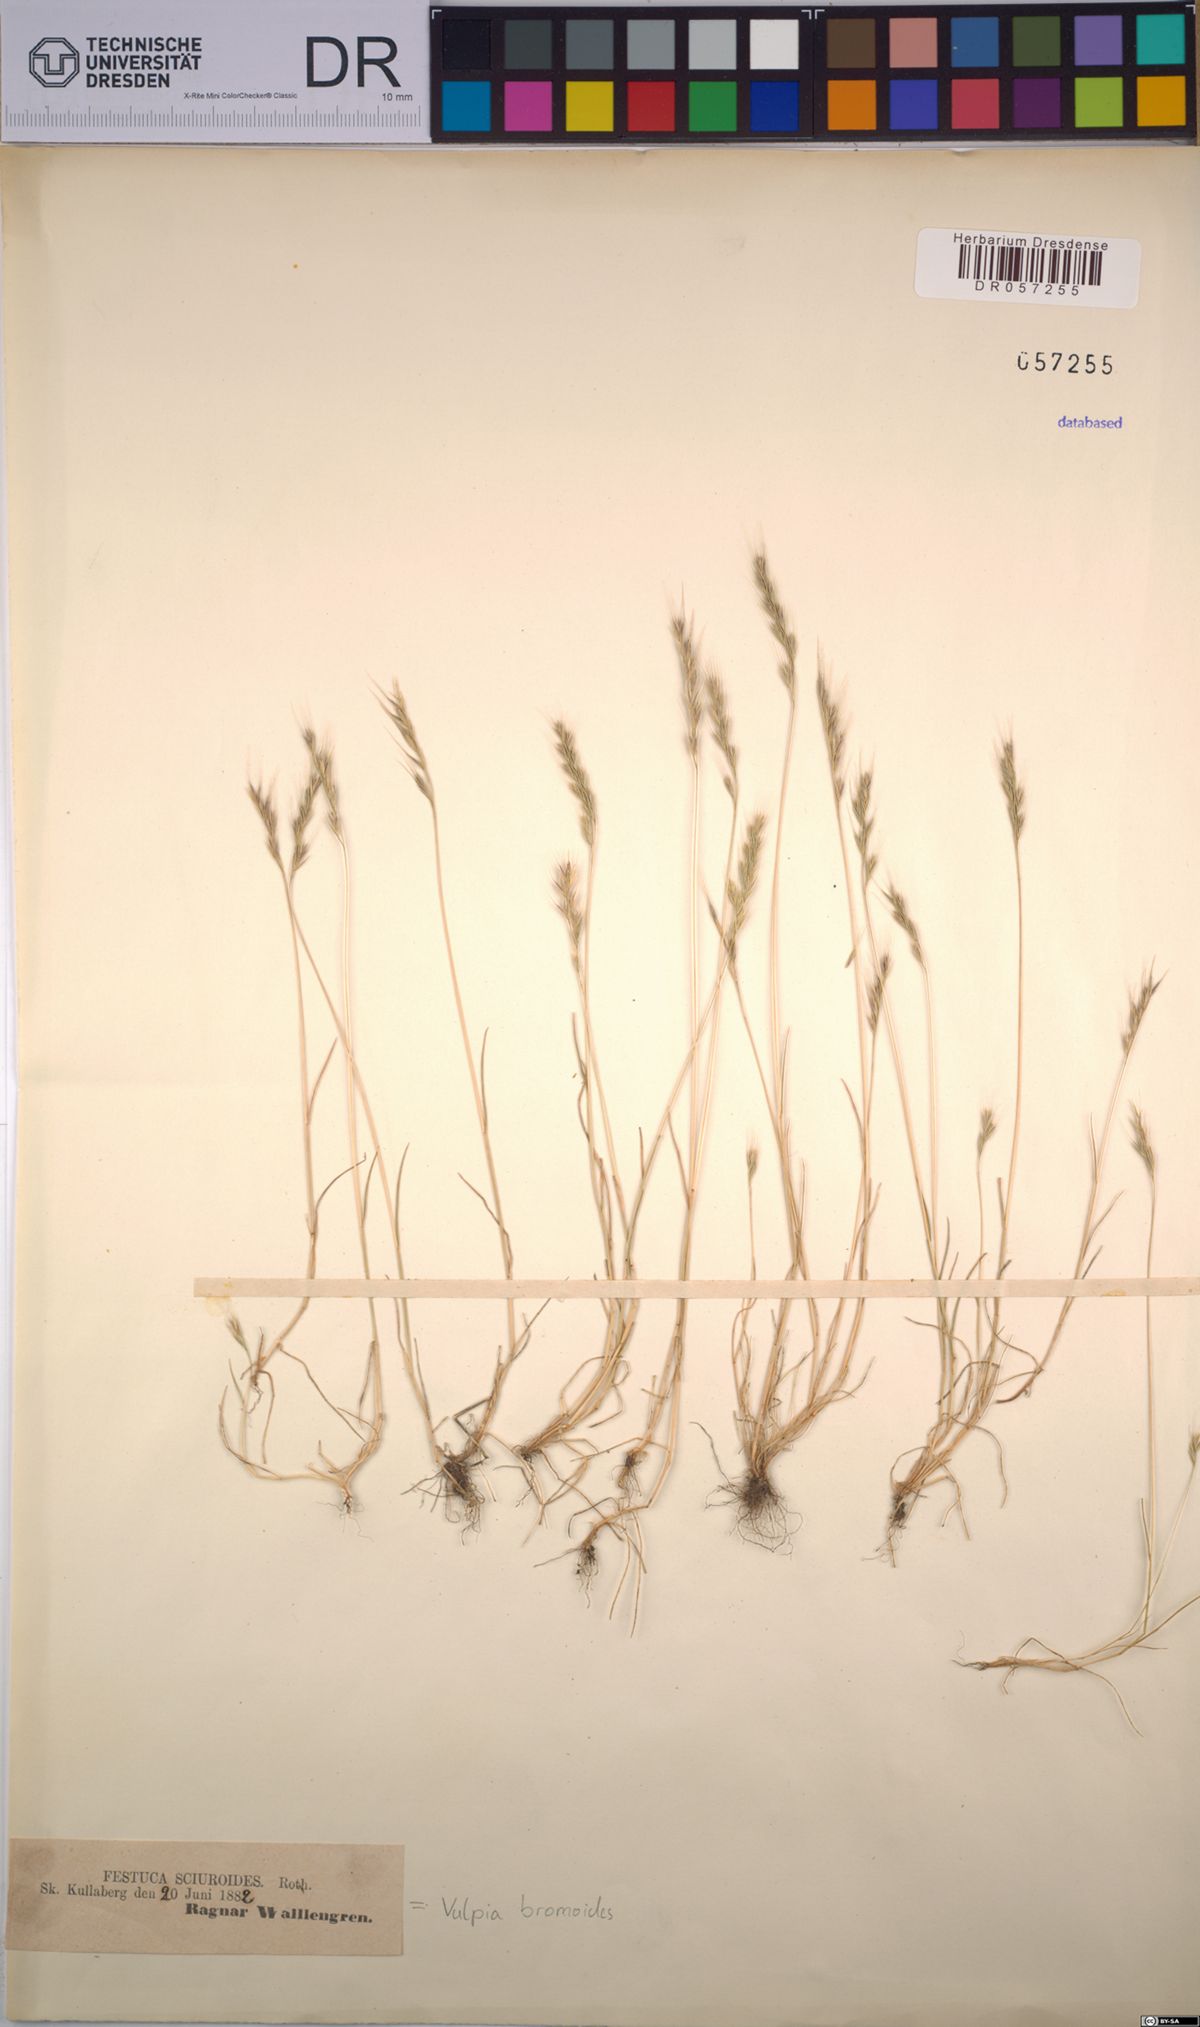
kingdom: Plantae
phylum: Tracheophyta
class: Liliopsida
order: Poales
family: Poaceae
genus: Festuca
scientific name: Festuca bromoides
